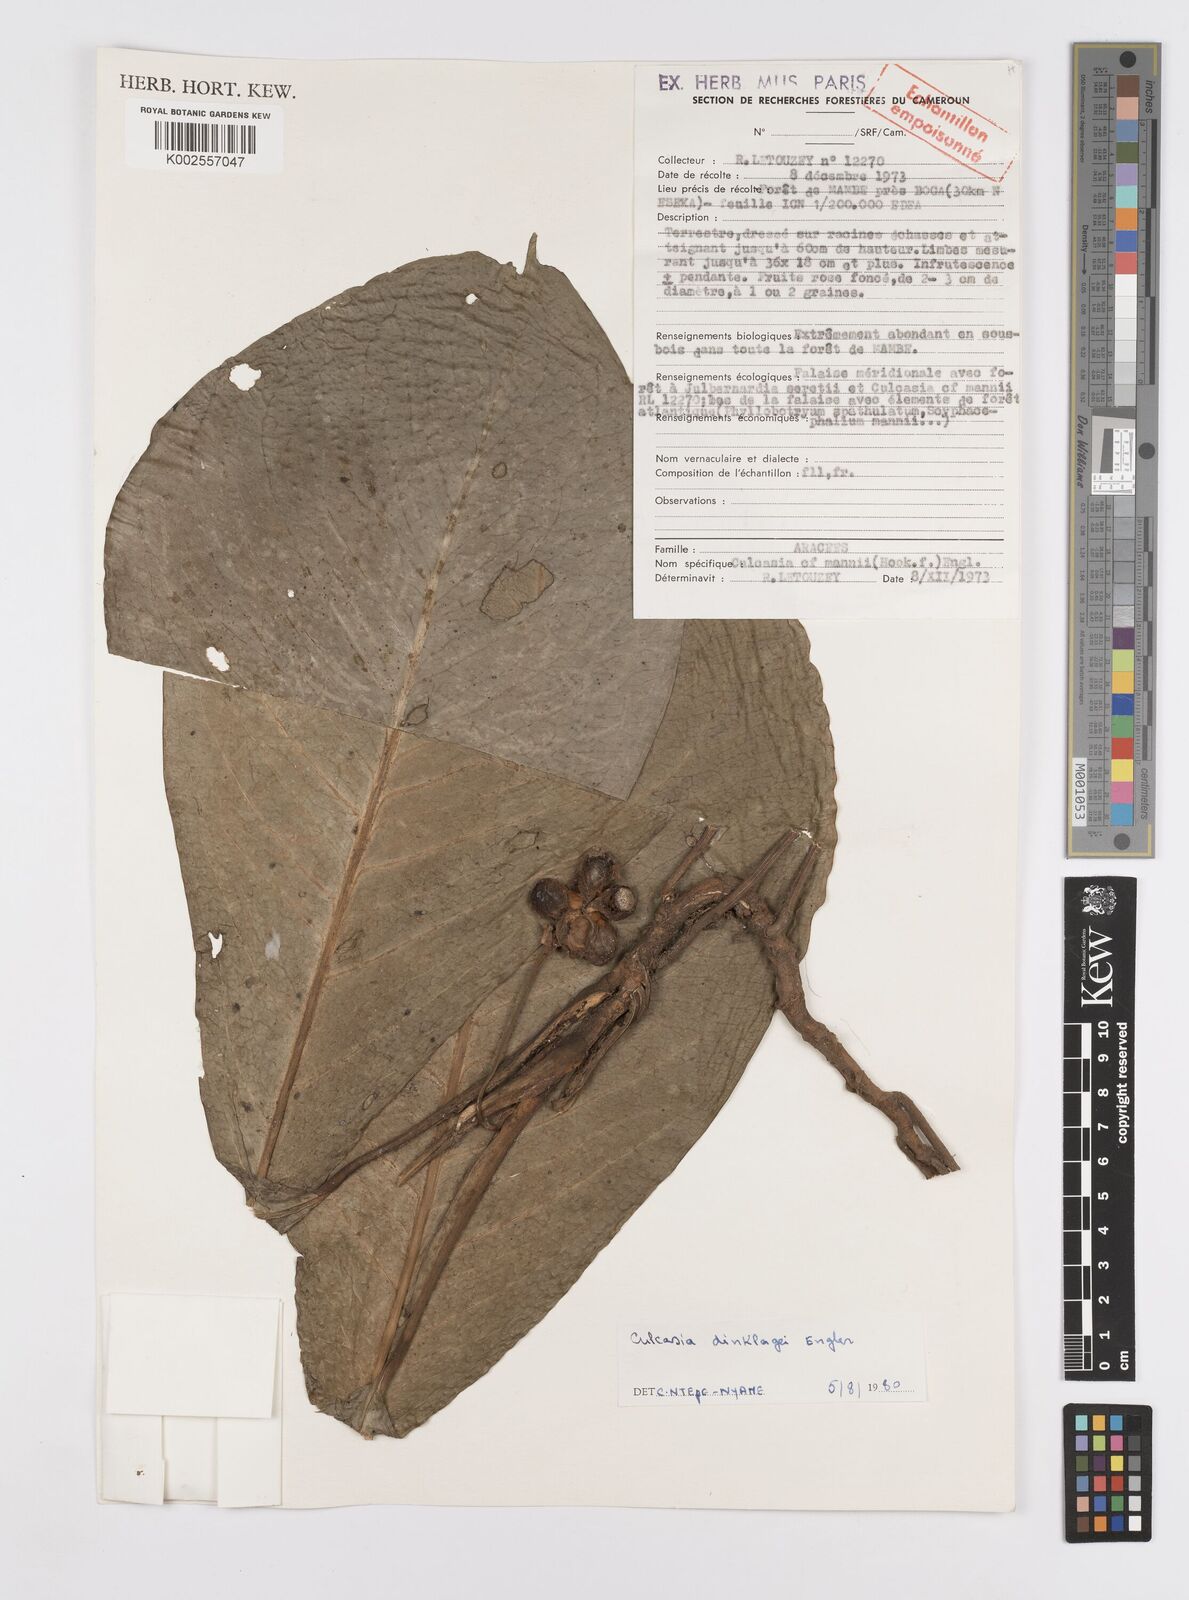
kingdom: Plantae
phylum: Tracheophyta
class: Liliopsida
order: Alismatales
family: Araceae
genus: Culcasia
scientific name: Culcasia dinklagei
